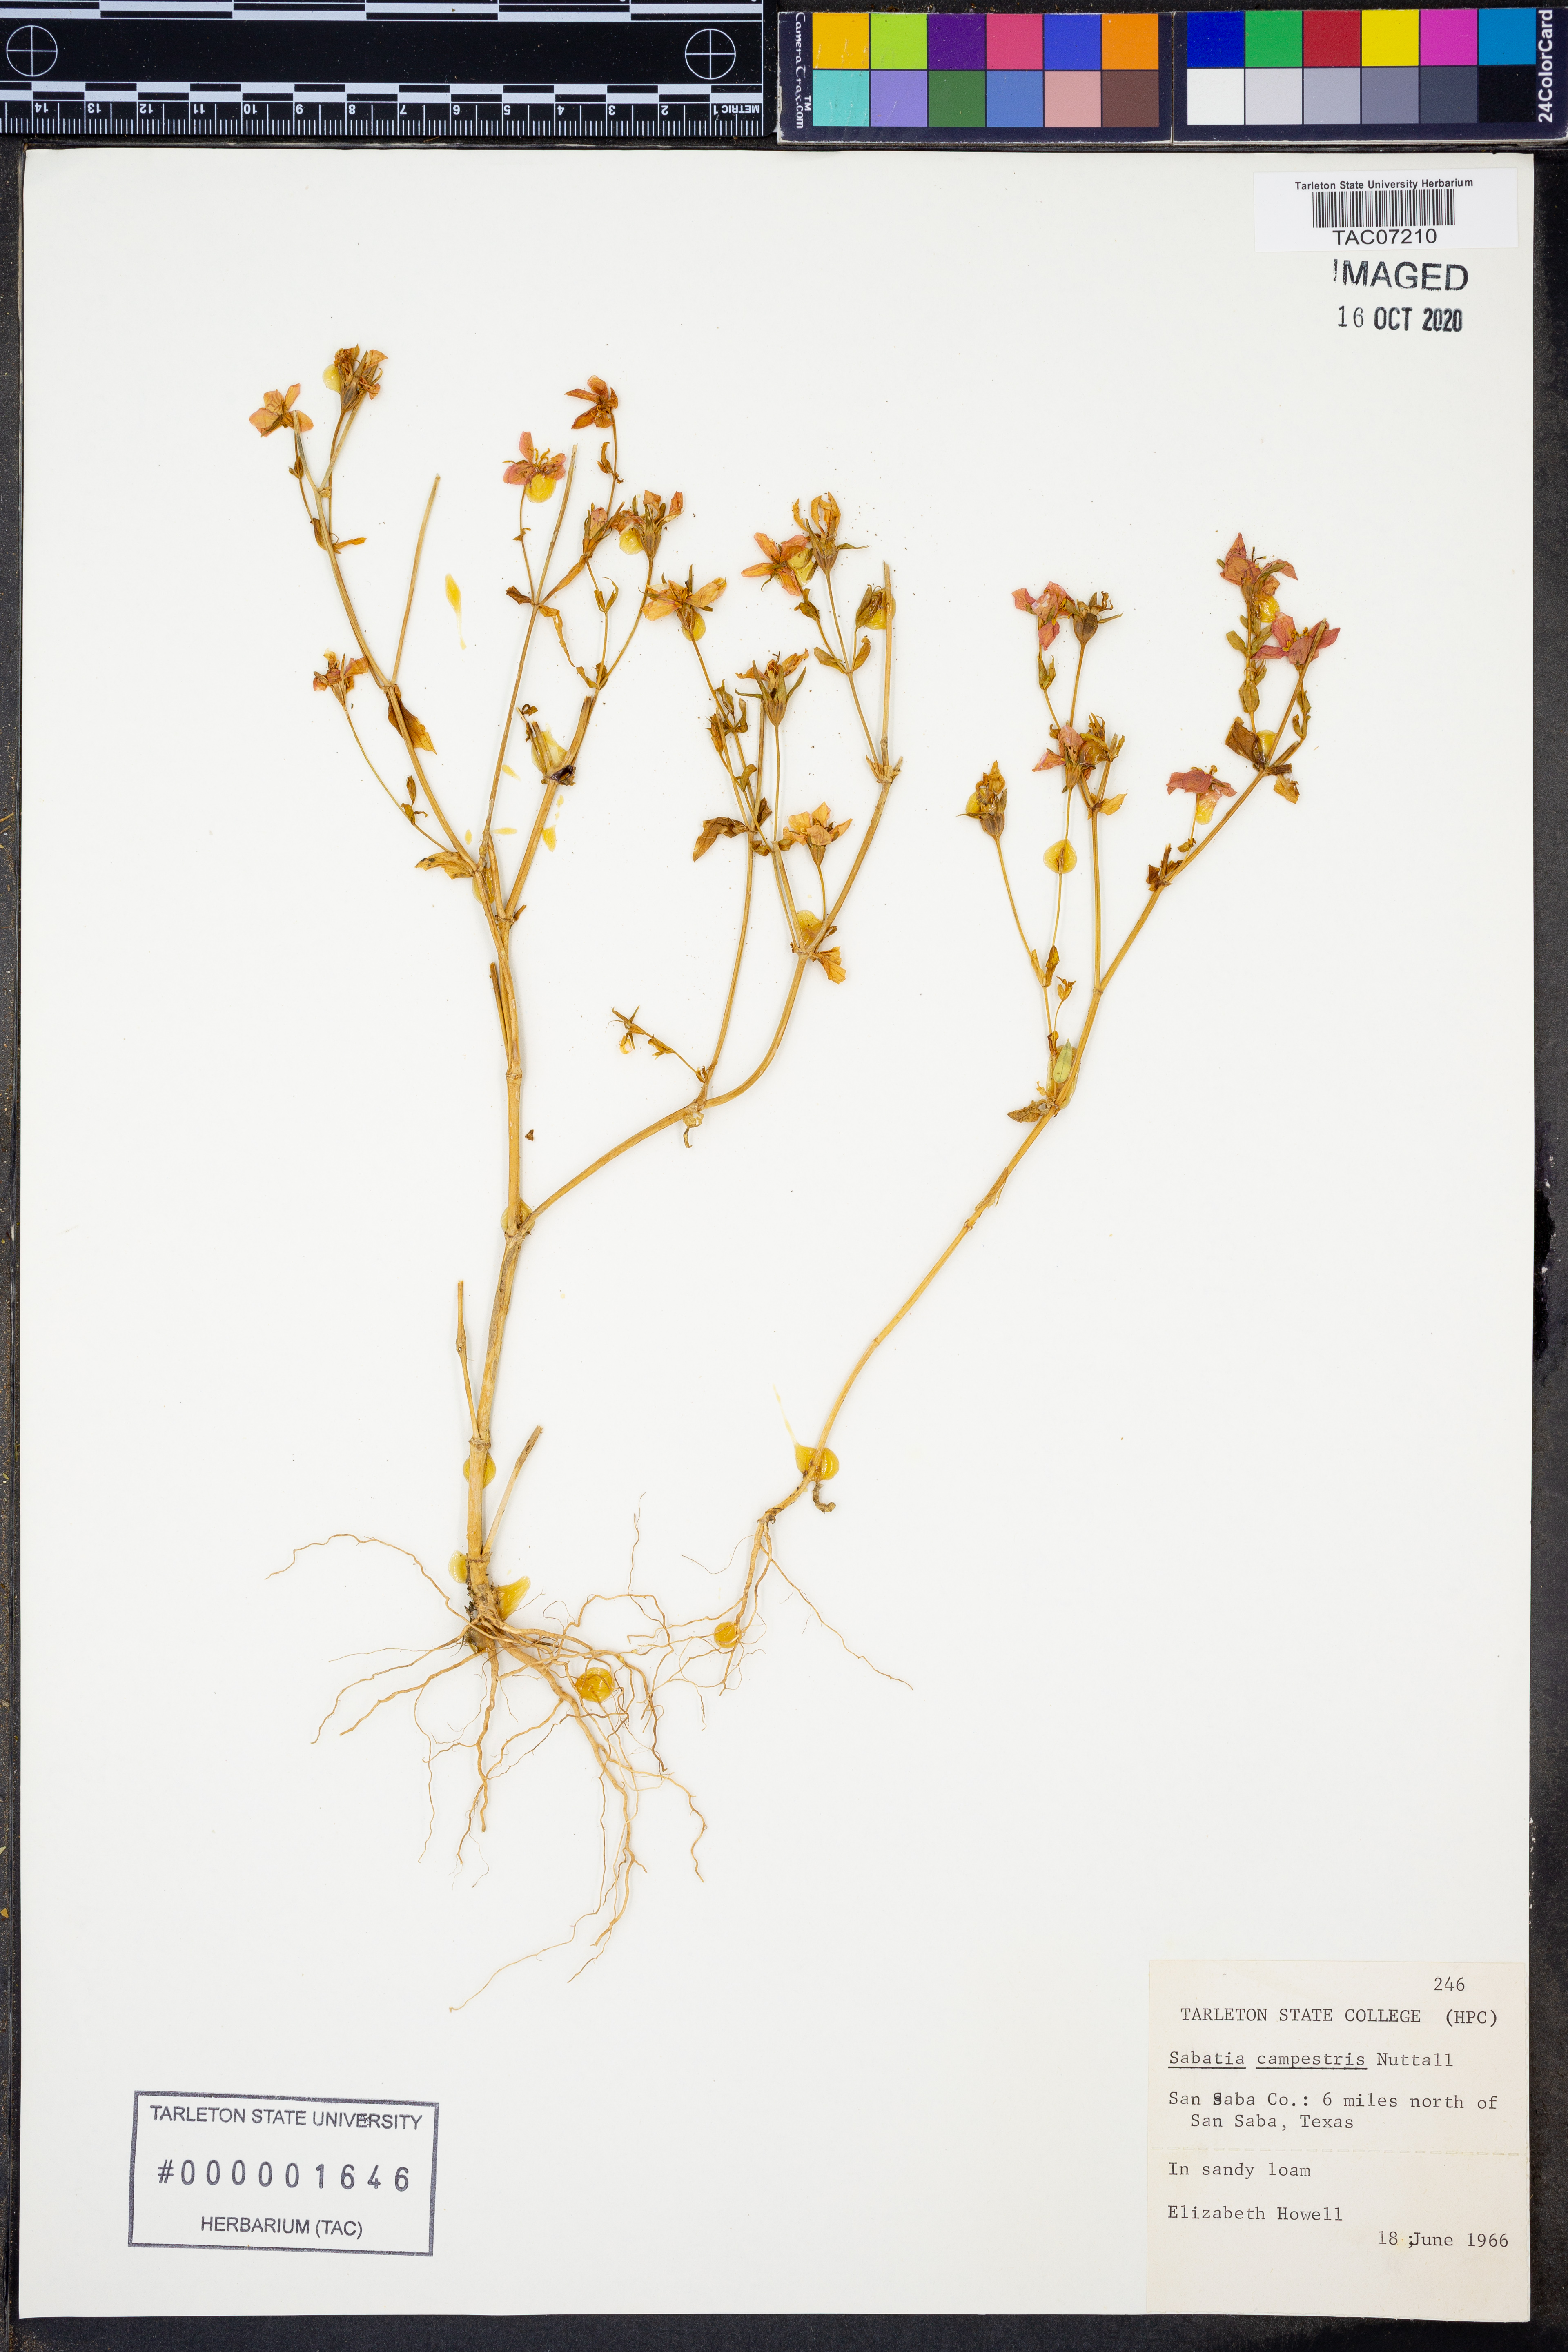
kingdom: Plantae
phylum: Tracheophyta
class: Magnoliopsida
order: Gentianales
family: Gentianaceae
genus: Sabatia
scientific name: Sabatia campestris
